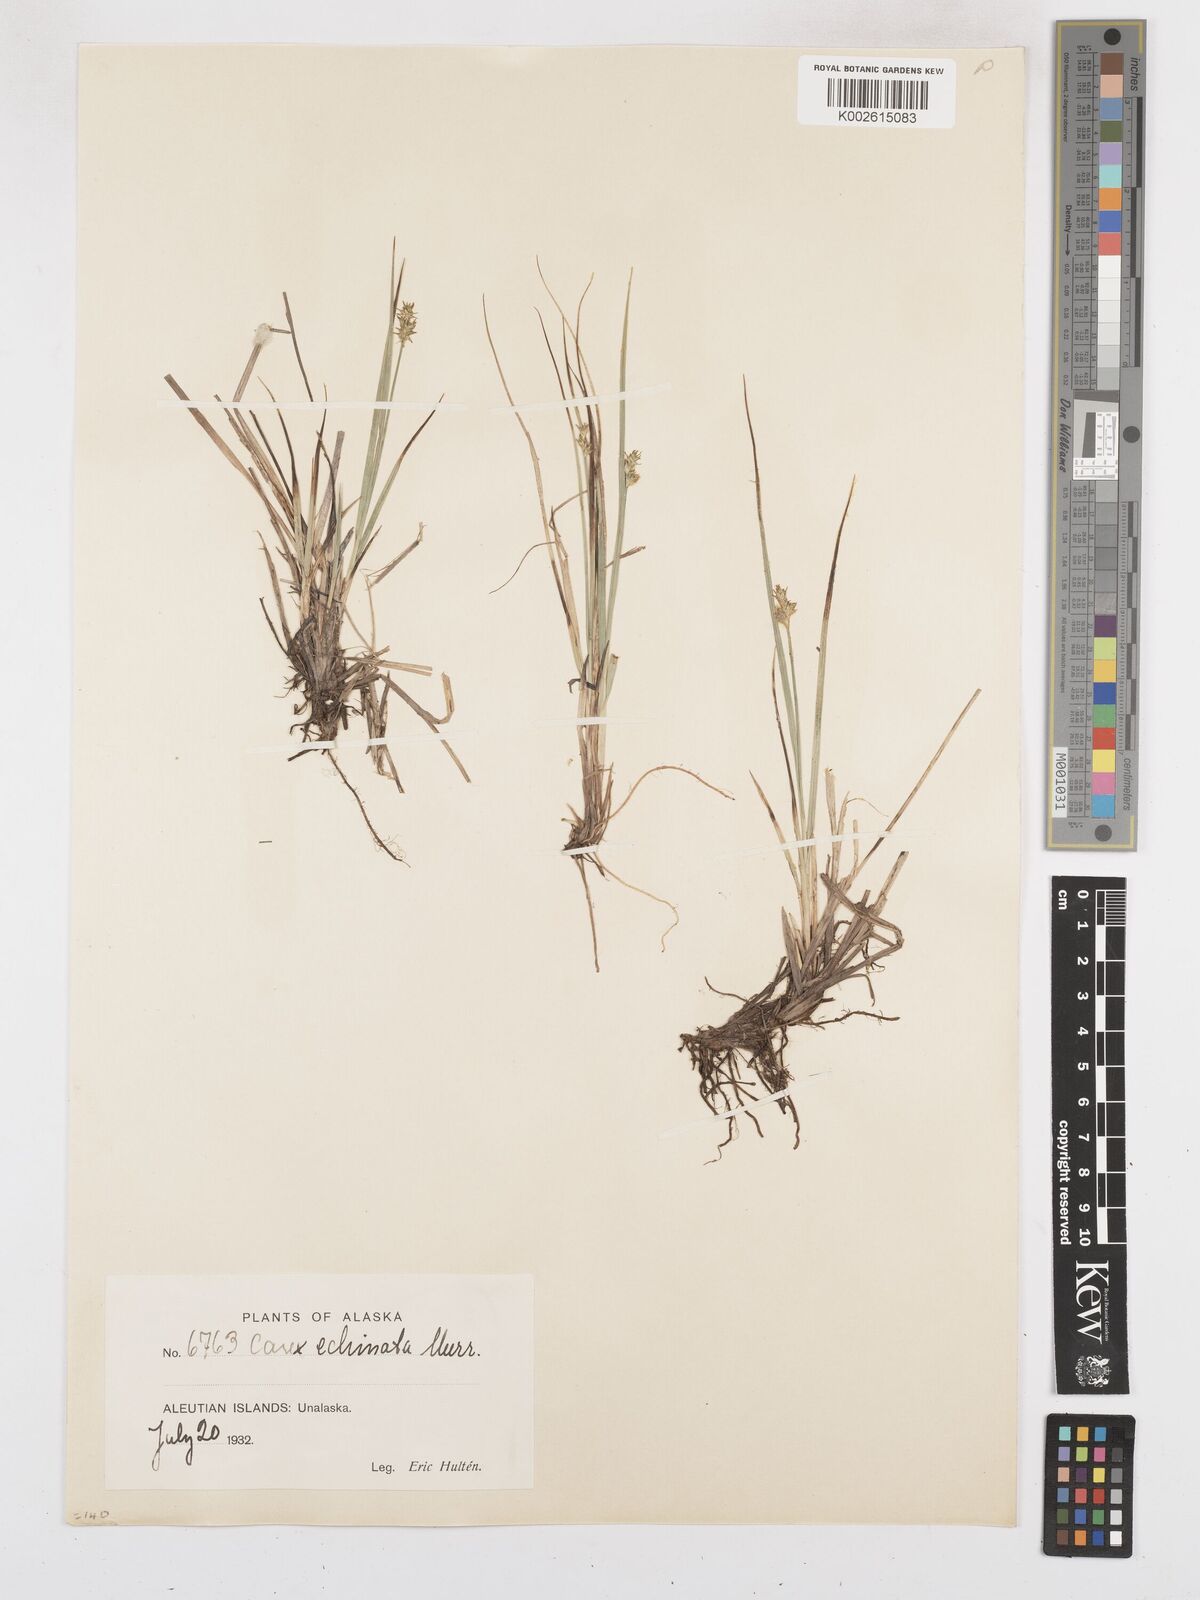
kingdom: Plantae
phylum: Tracheophyta
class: Liliopsida
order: Poales
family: Cyperaceae
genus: Carex
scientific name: Carex echinata
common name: Star sedge
